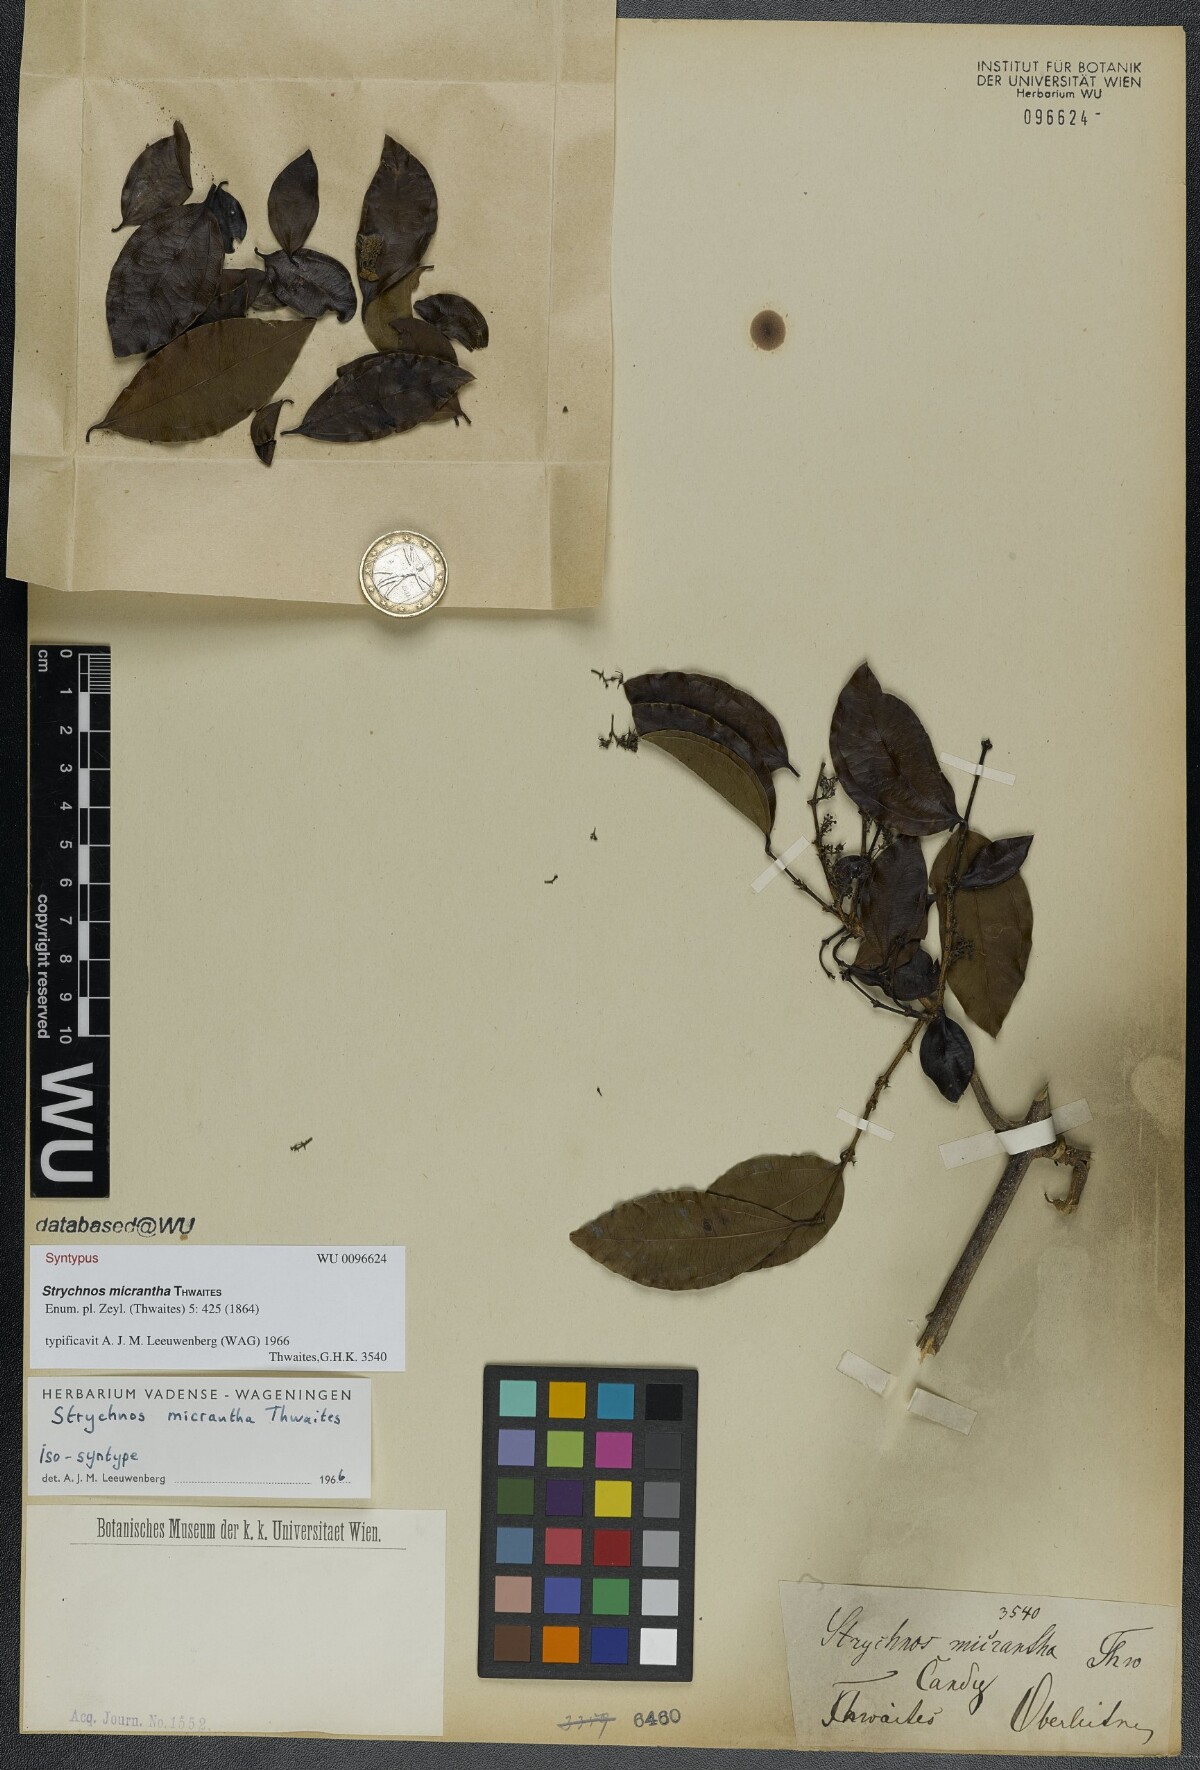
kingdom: Plantae
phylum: Tracheophyta
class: Magnoliopsida
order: Gentianales
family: Loganiaceae
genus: Strychnos
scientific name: Strychnos minor
